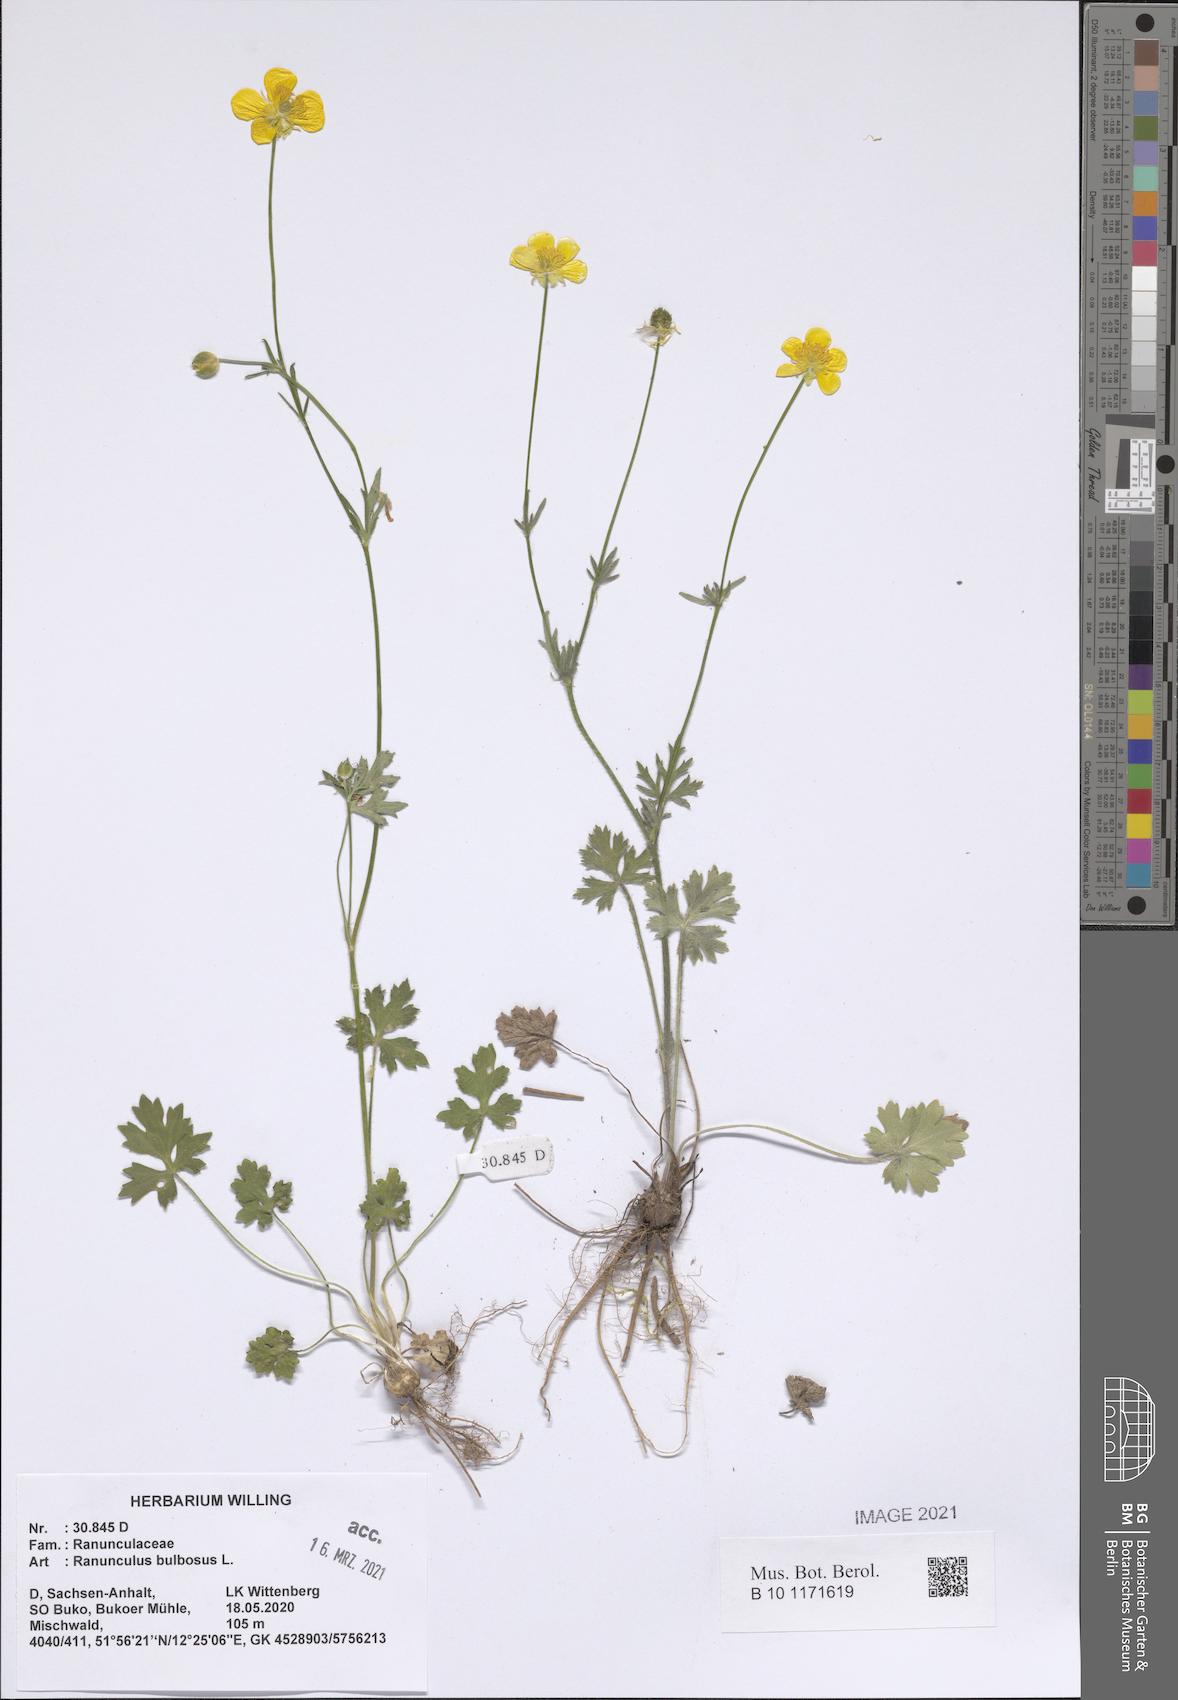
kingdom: Plantae
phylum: Tracheophyta
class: Magnoliopsida
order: Ranunculales
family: Ranunculaceae
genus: Ranunculus
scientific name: Ranunculus bulbosus
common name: Bulbous buttercup
